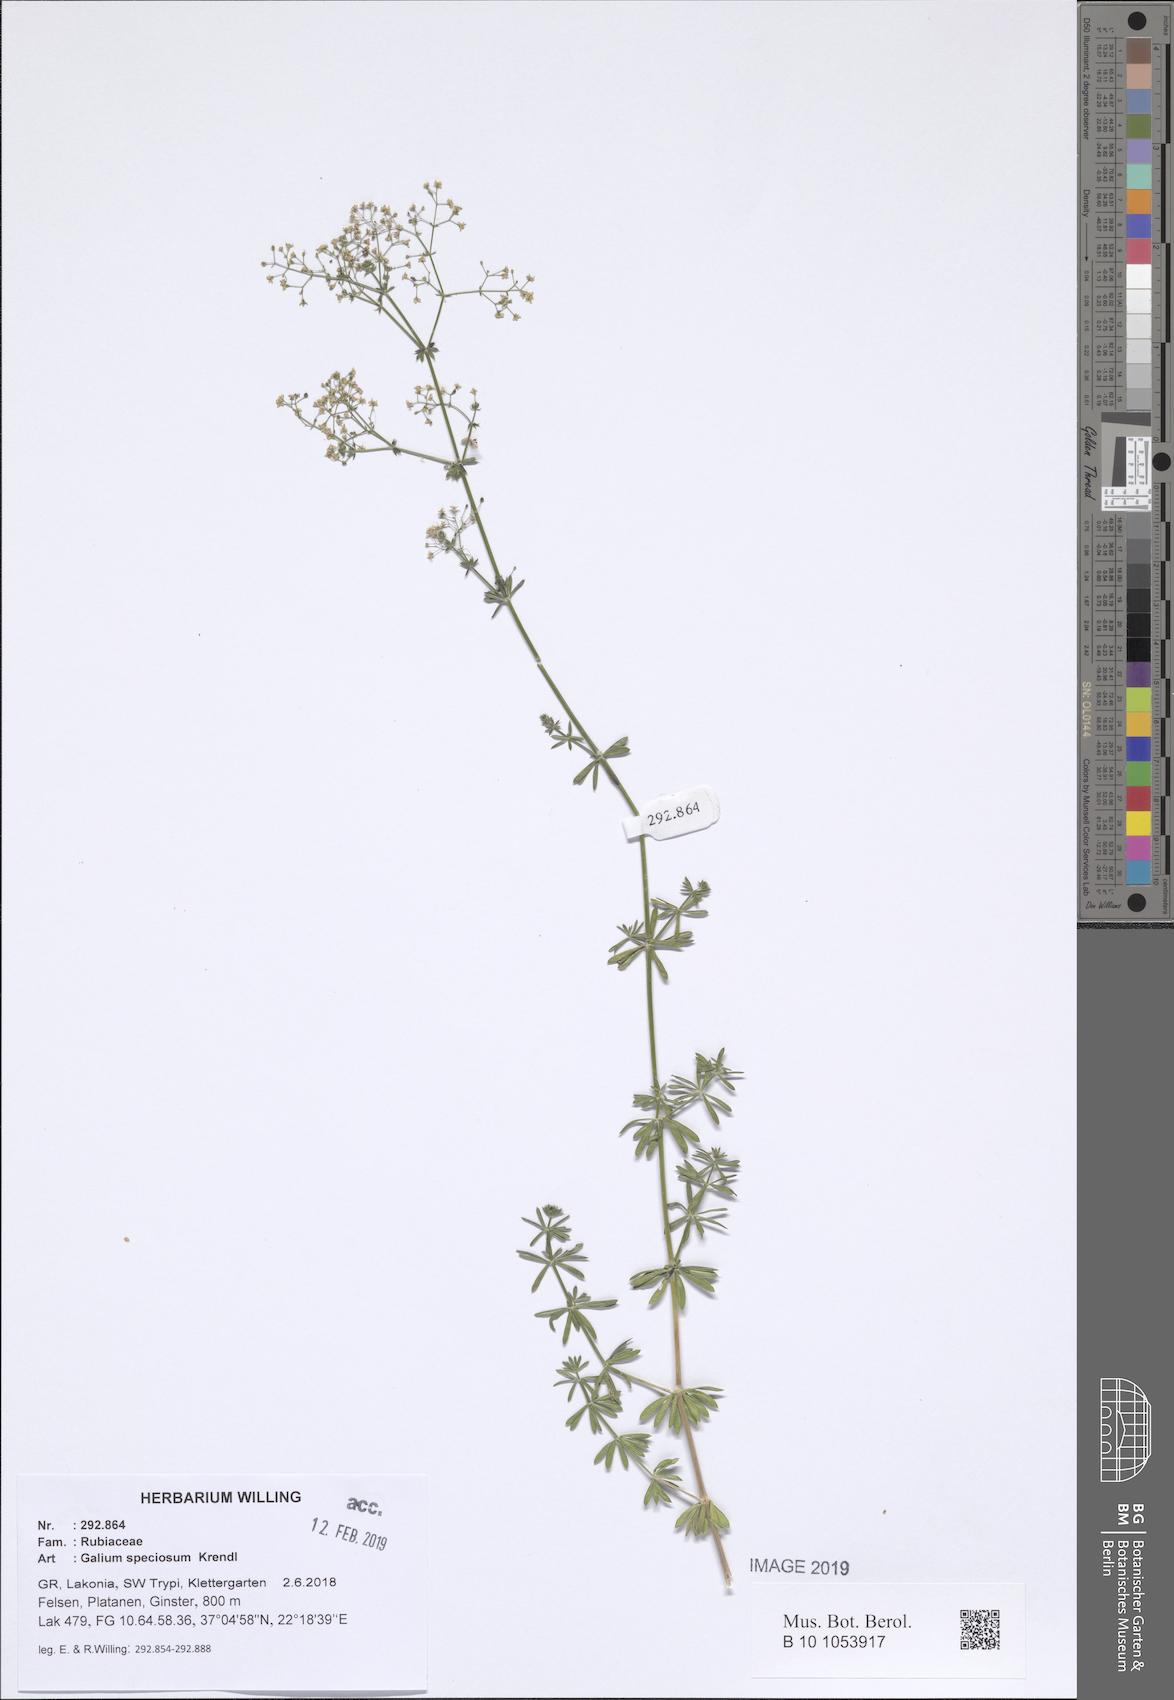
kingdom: Plantae
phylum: Tracheophyta
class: Magnoliopsida
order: Gentianales
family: Rubiaceae
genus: Galium
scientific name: Galium speciosum
